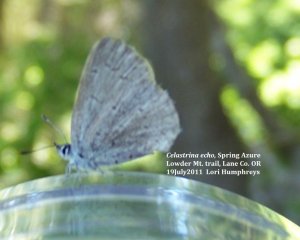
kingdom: Animalia
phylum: Arthropoda
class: Insecta
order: Lepidoptera
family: Lycaenidae
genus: Celastrina
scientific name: Celastrina ladon
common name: Spring Azure
